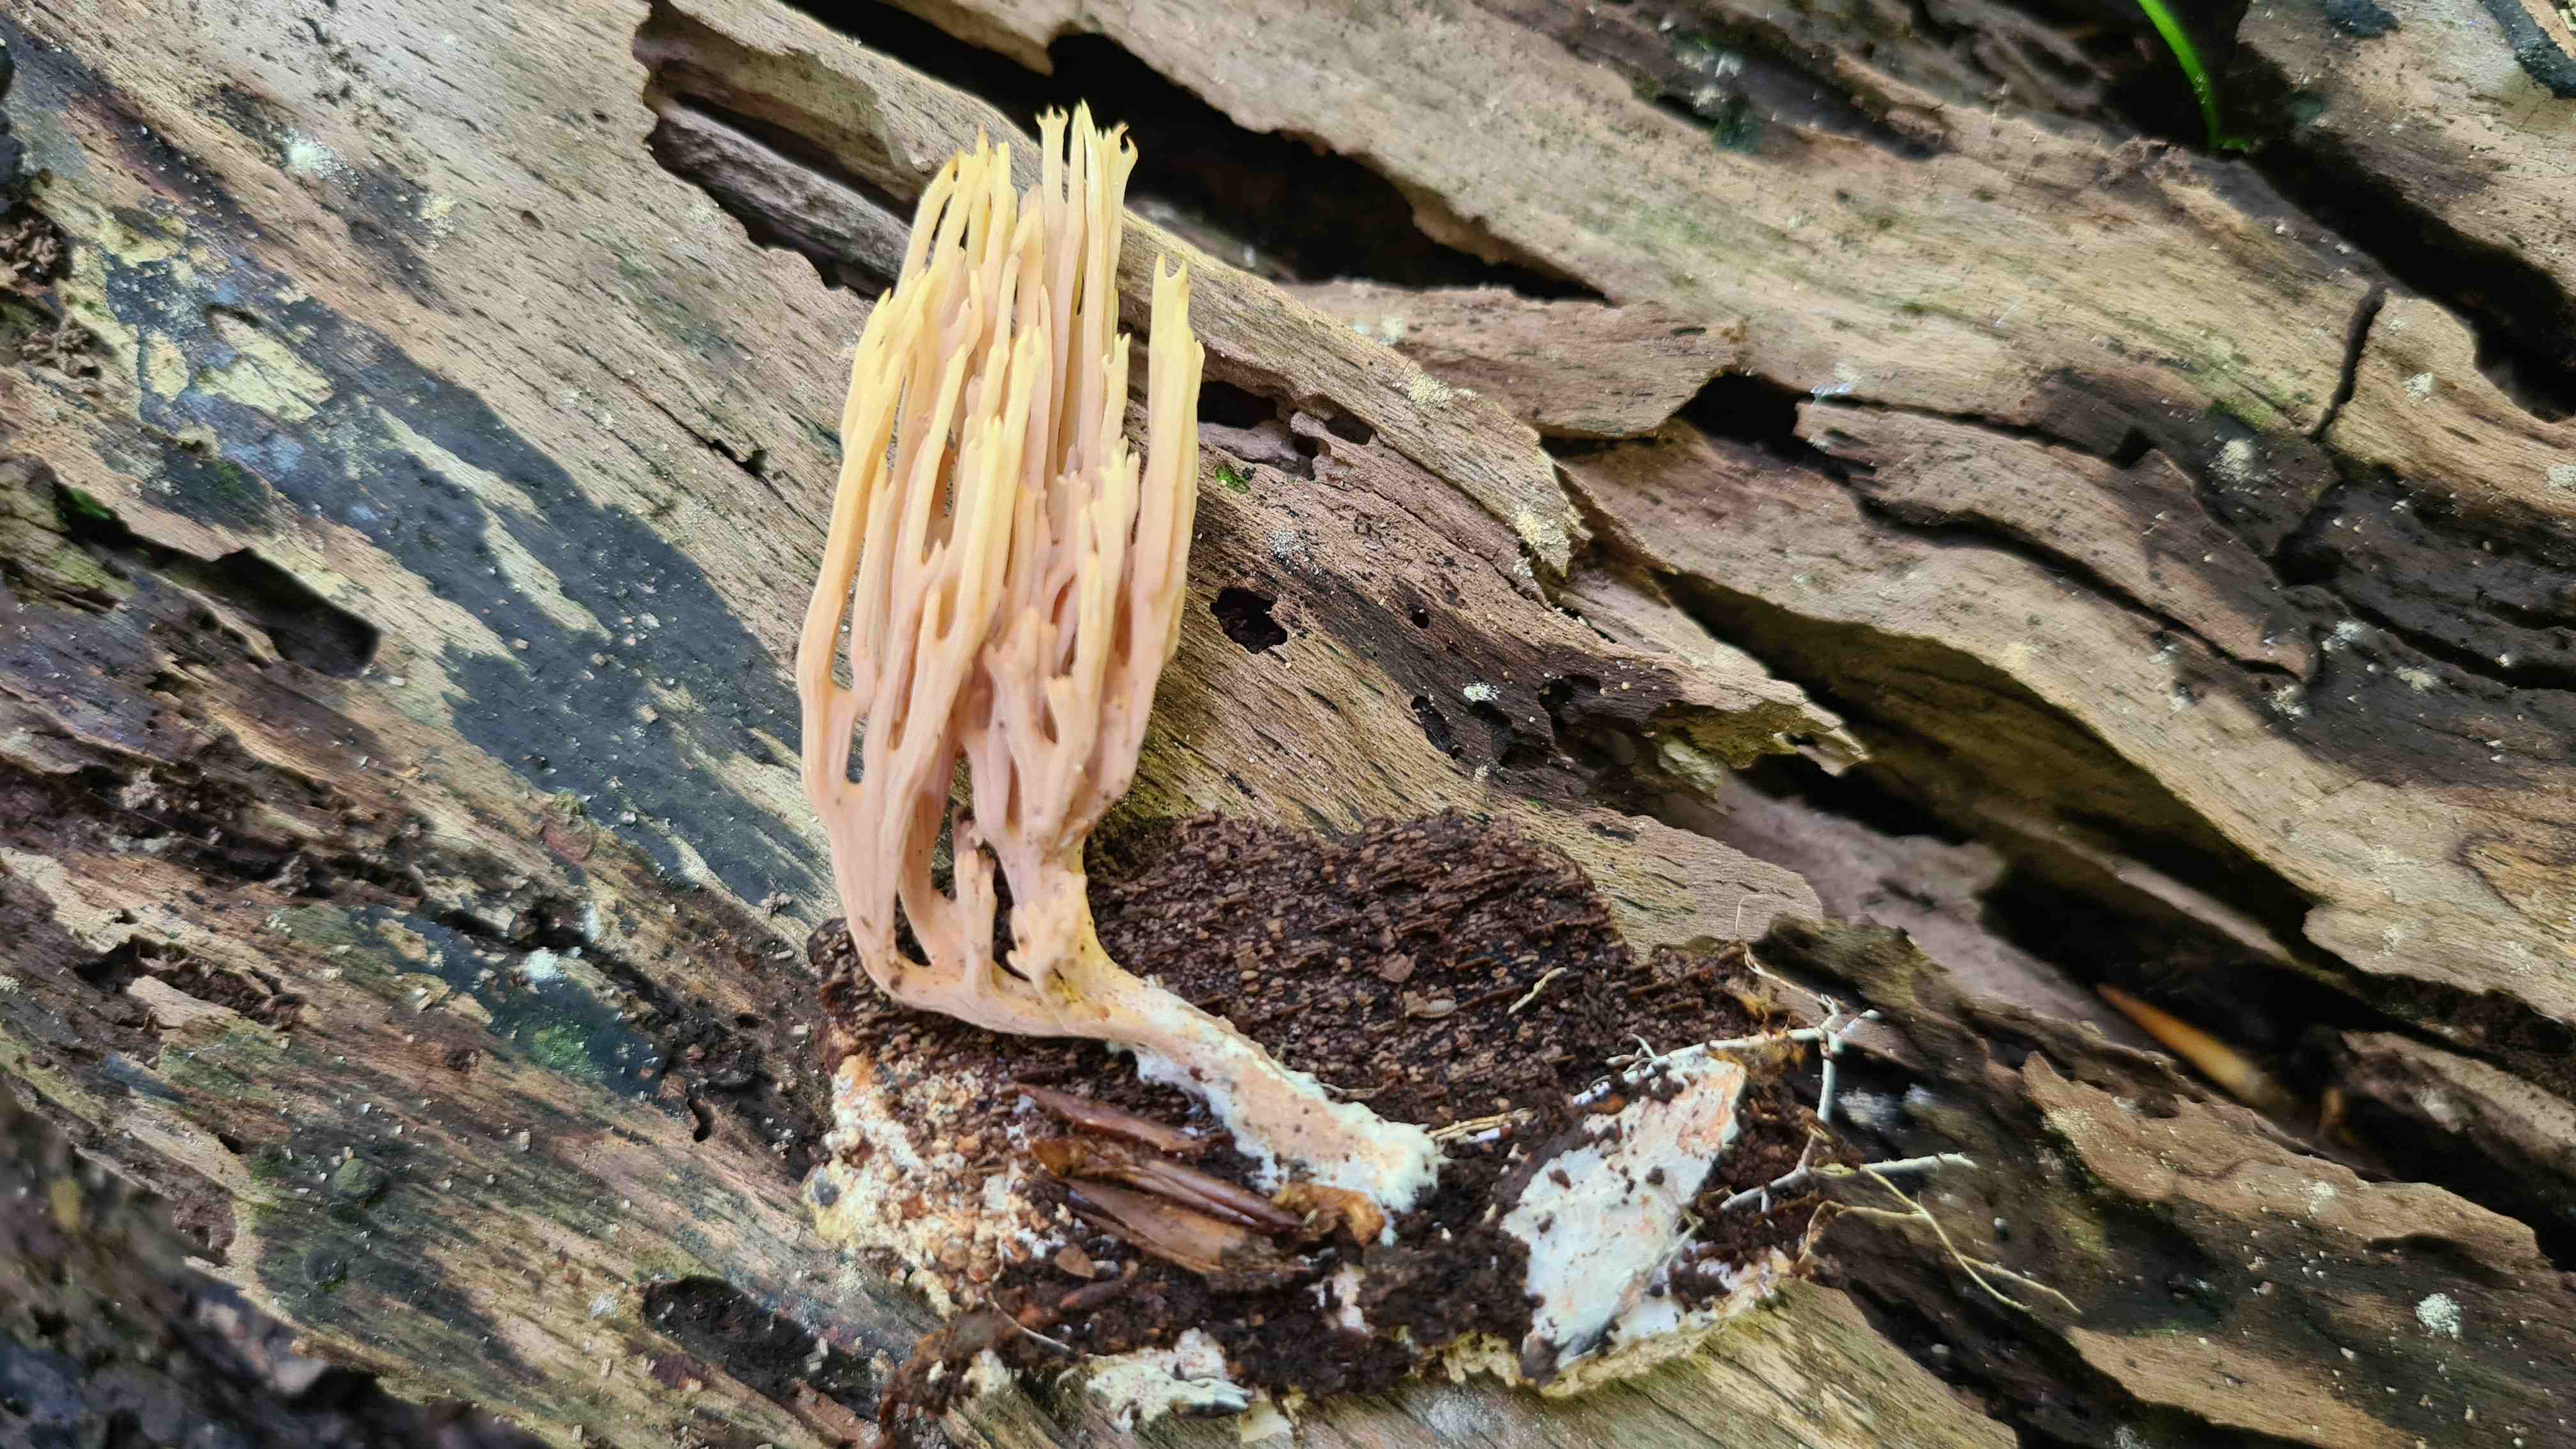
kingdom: Fungi
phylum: Basidiomycota
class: Agaricomycetes
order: Gomphales
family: Gomphaceae
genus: Ramaria
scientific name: Ramaria stricta
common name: rank koralsvamp
